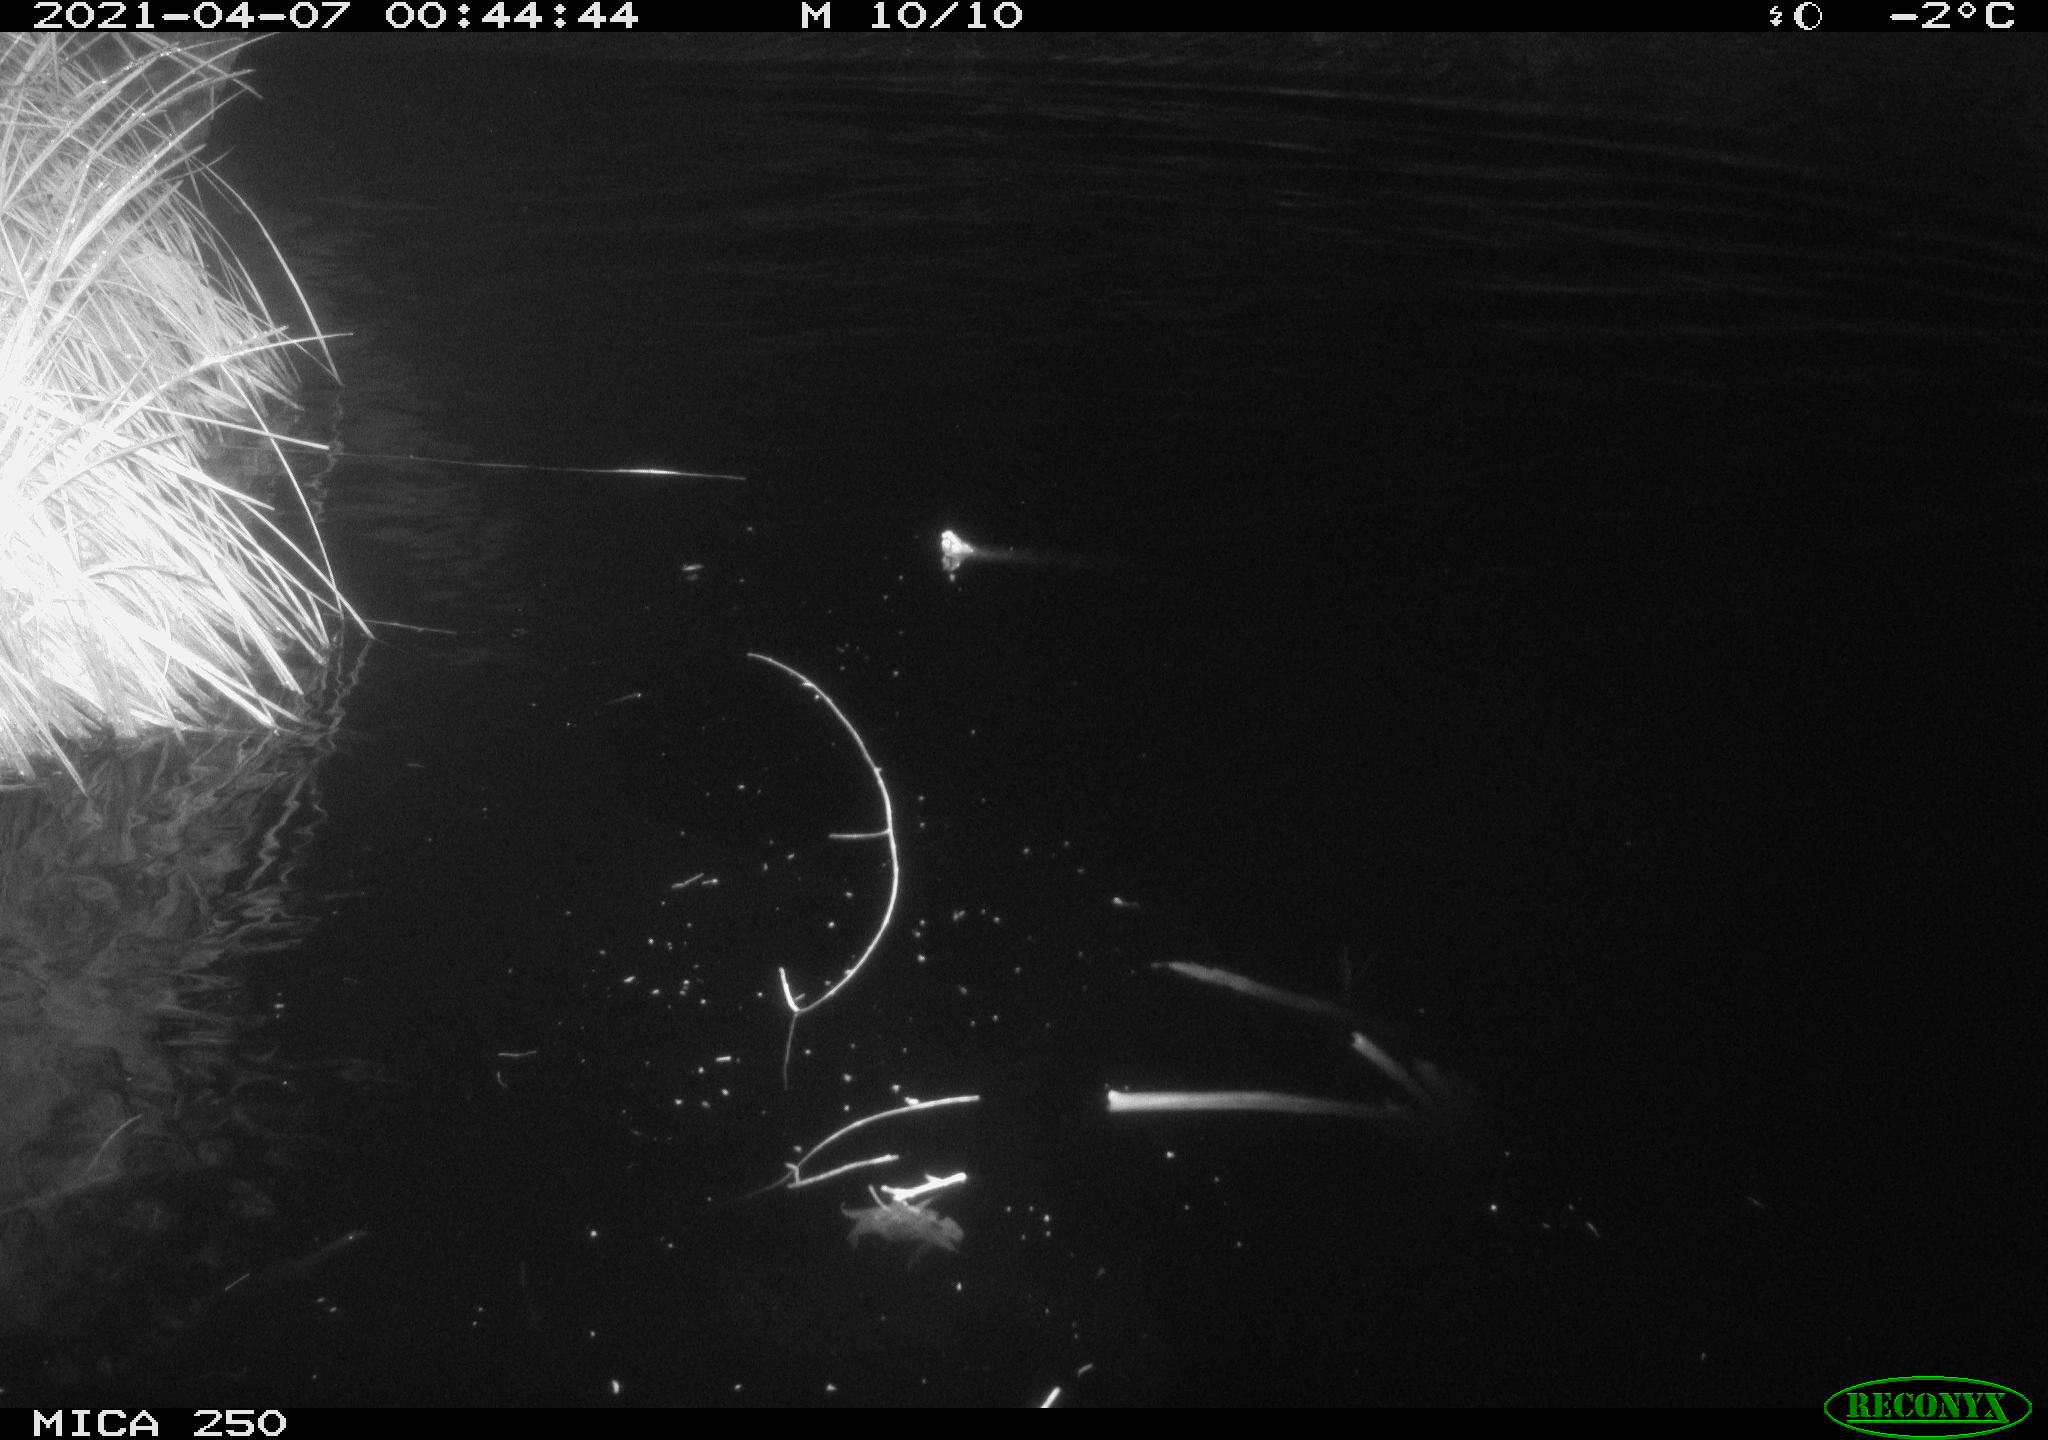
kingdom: Animalia
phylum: Chordata
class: Aves
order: Gruiformes
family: Rallidae
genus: Fulica
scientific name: Fulica atra
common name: Eurasian coot
